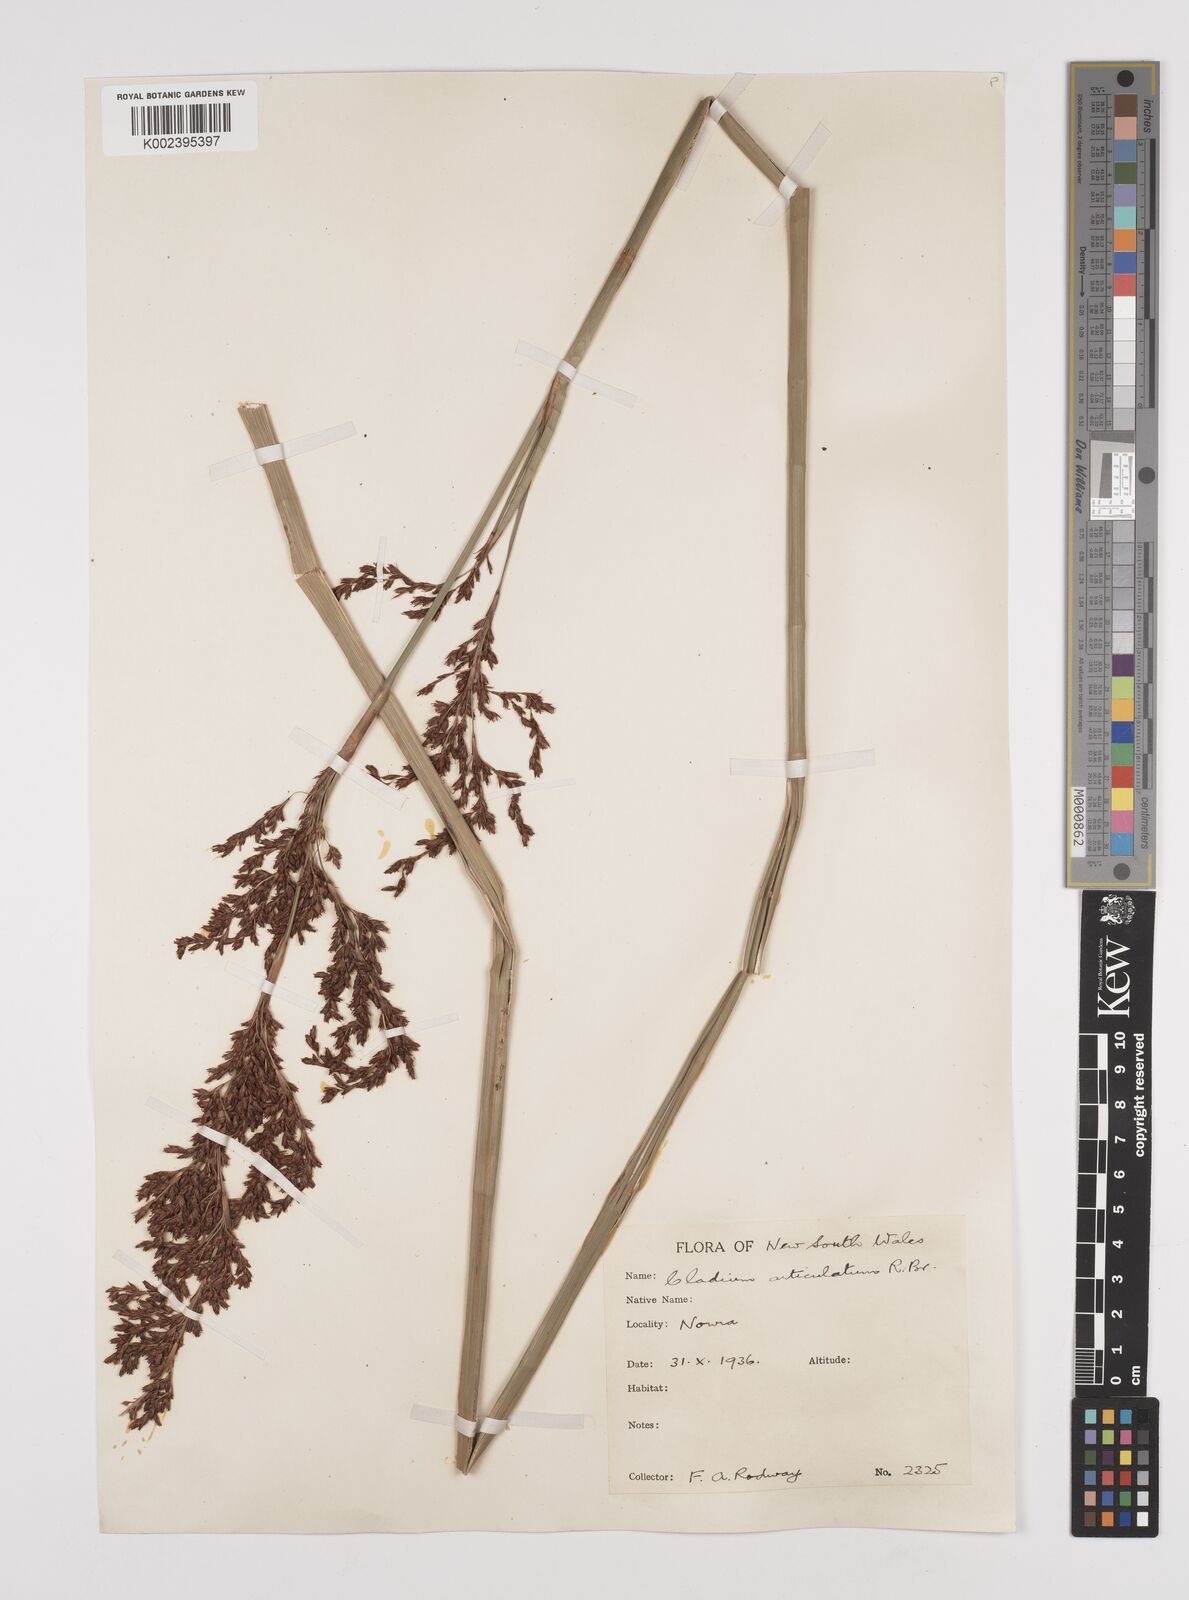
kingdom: Plantae
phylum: Tracheophyta
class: Liliopsida
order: Poales
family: Cyperaceae
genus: Machaerina
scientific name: Machaerina articulata
